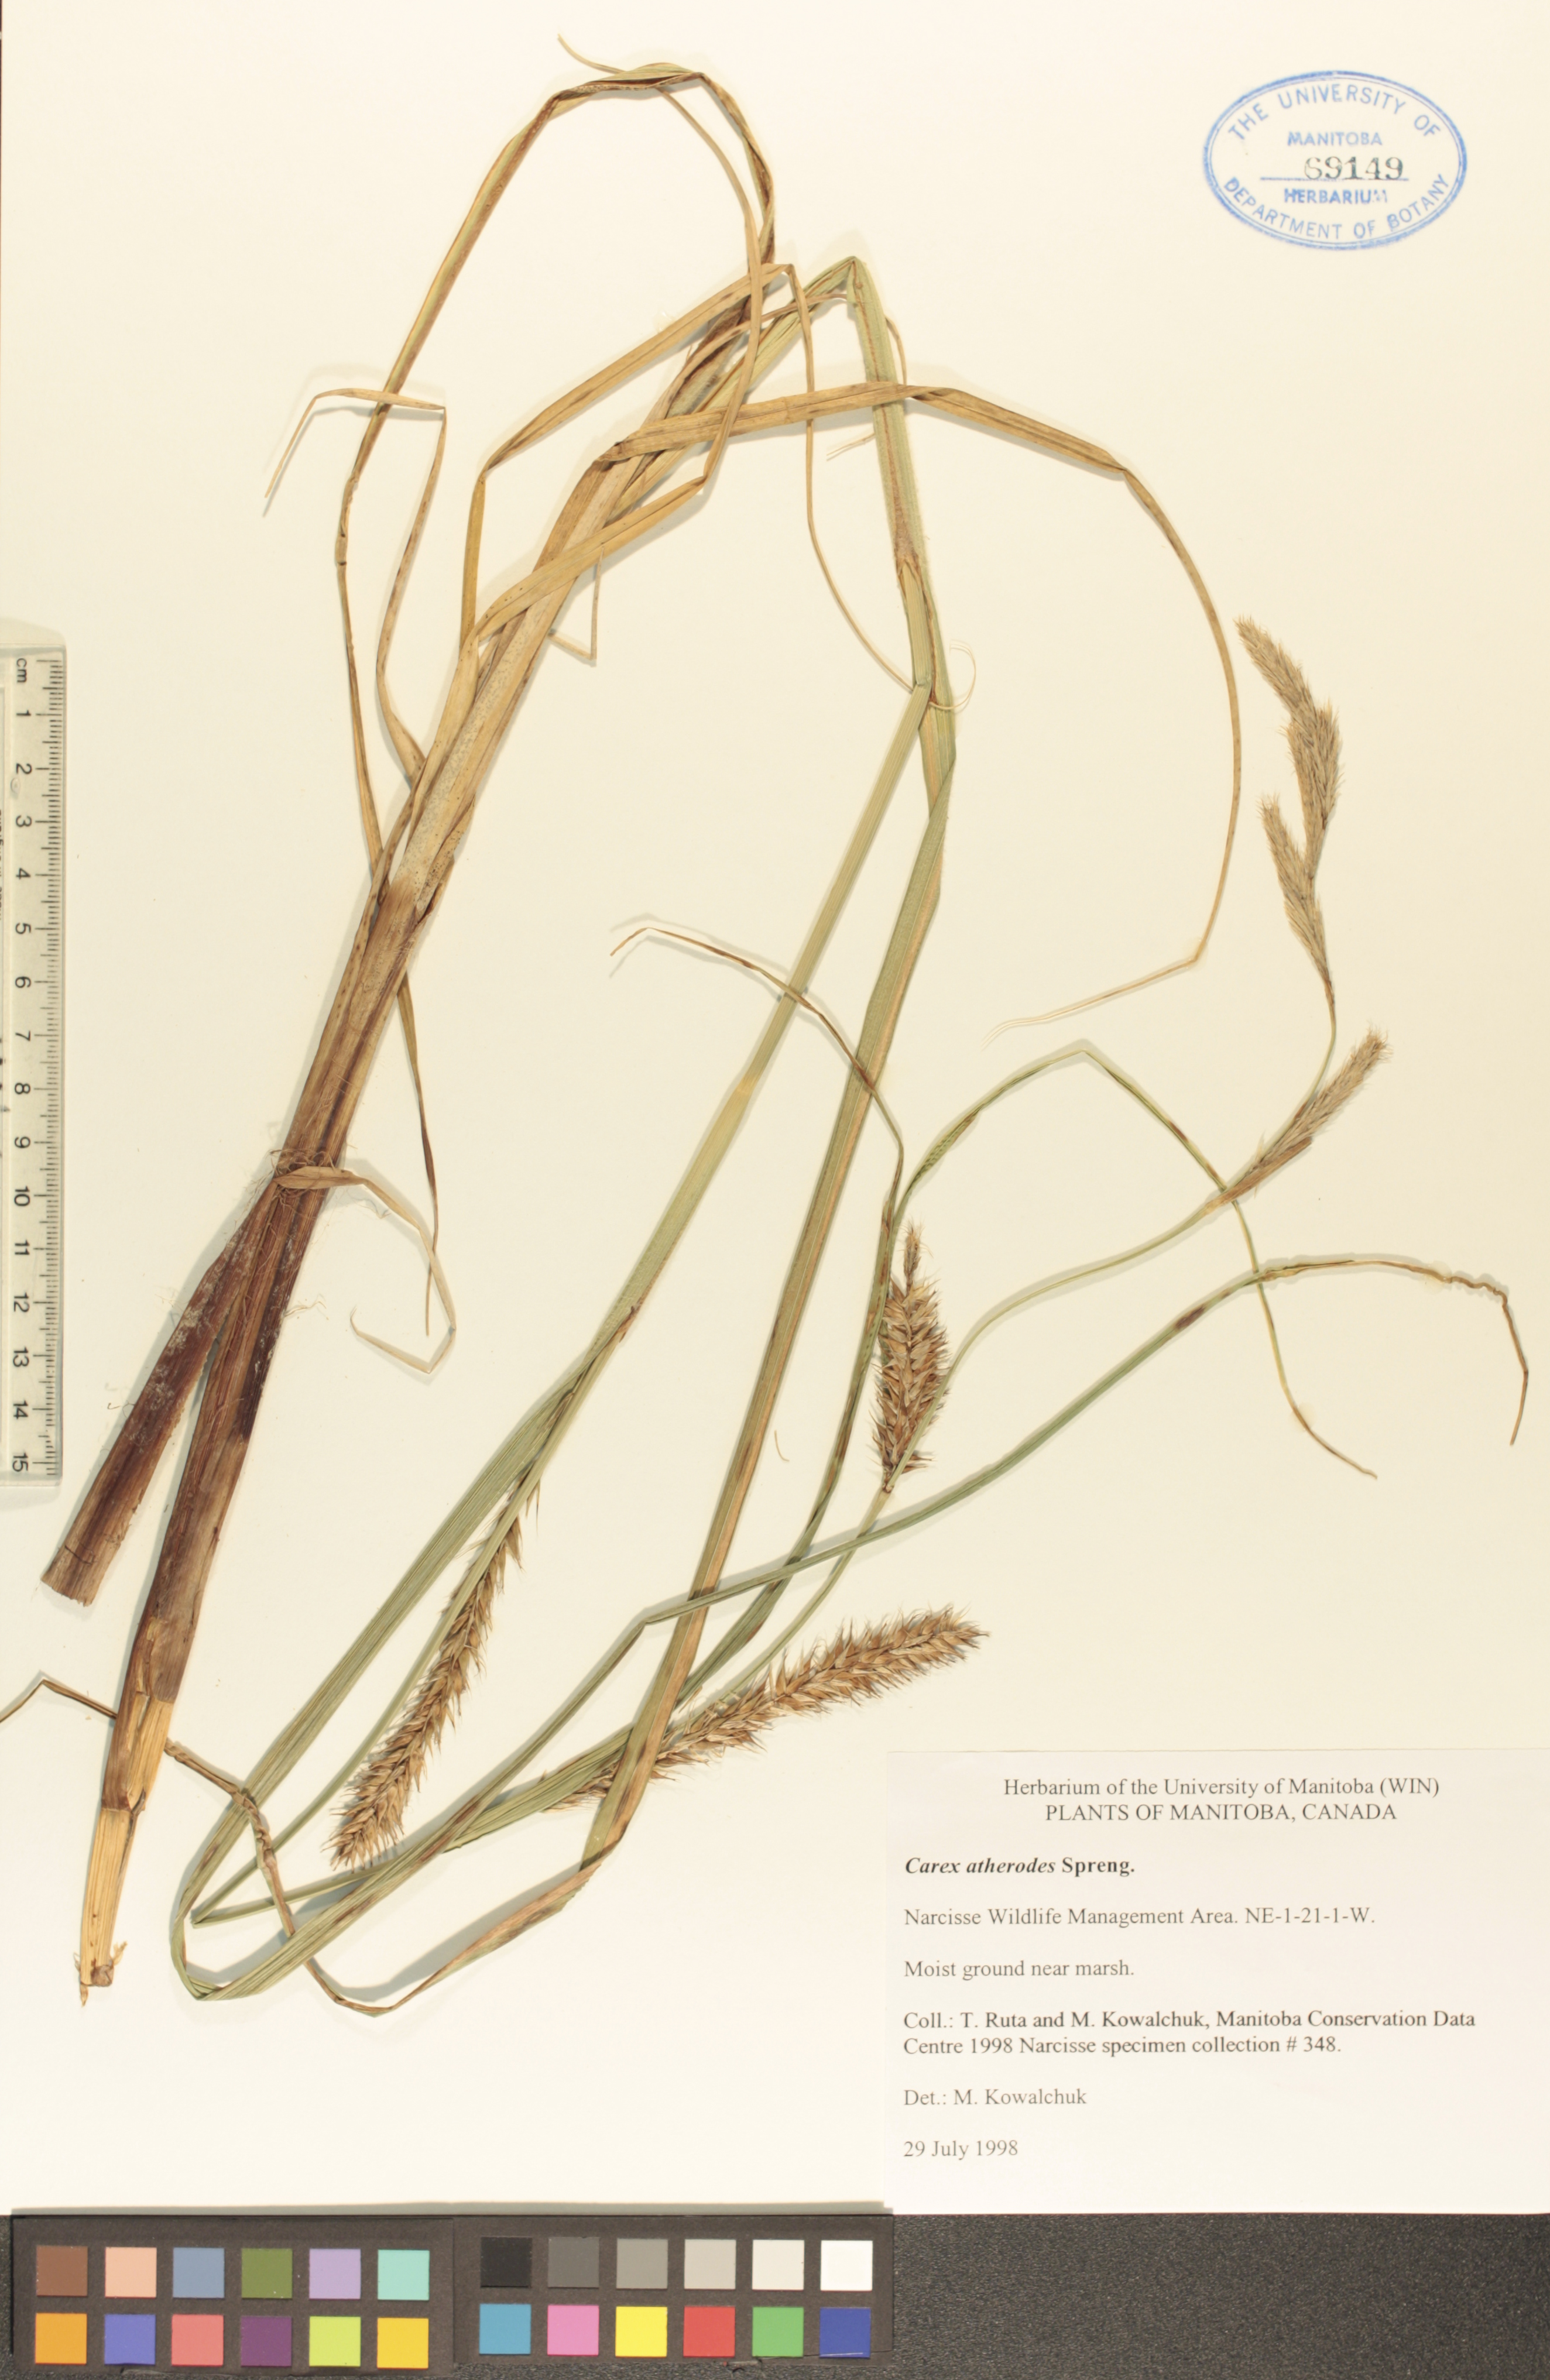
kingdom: Plantae
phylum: Tracheophyta
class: Liliopsida
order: Poales
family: Cyperaceae
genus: Carex
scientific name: Carex atherodes
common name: Wheat sedge
